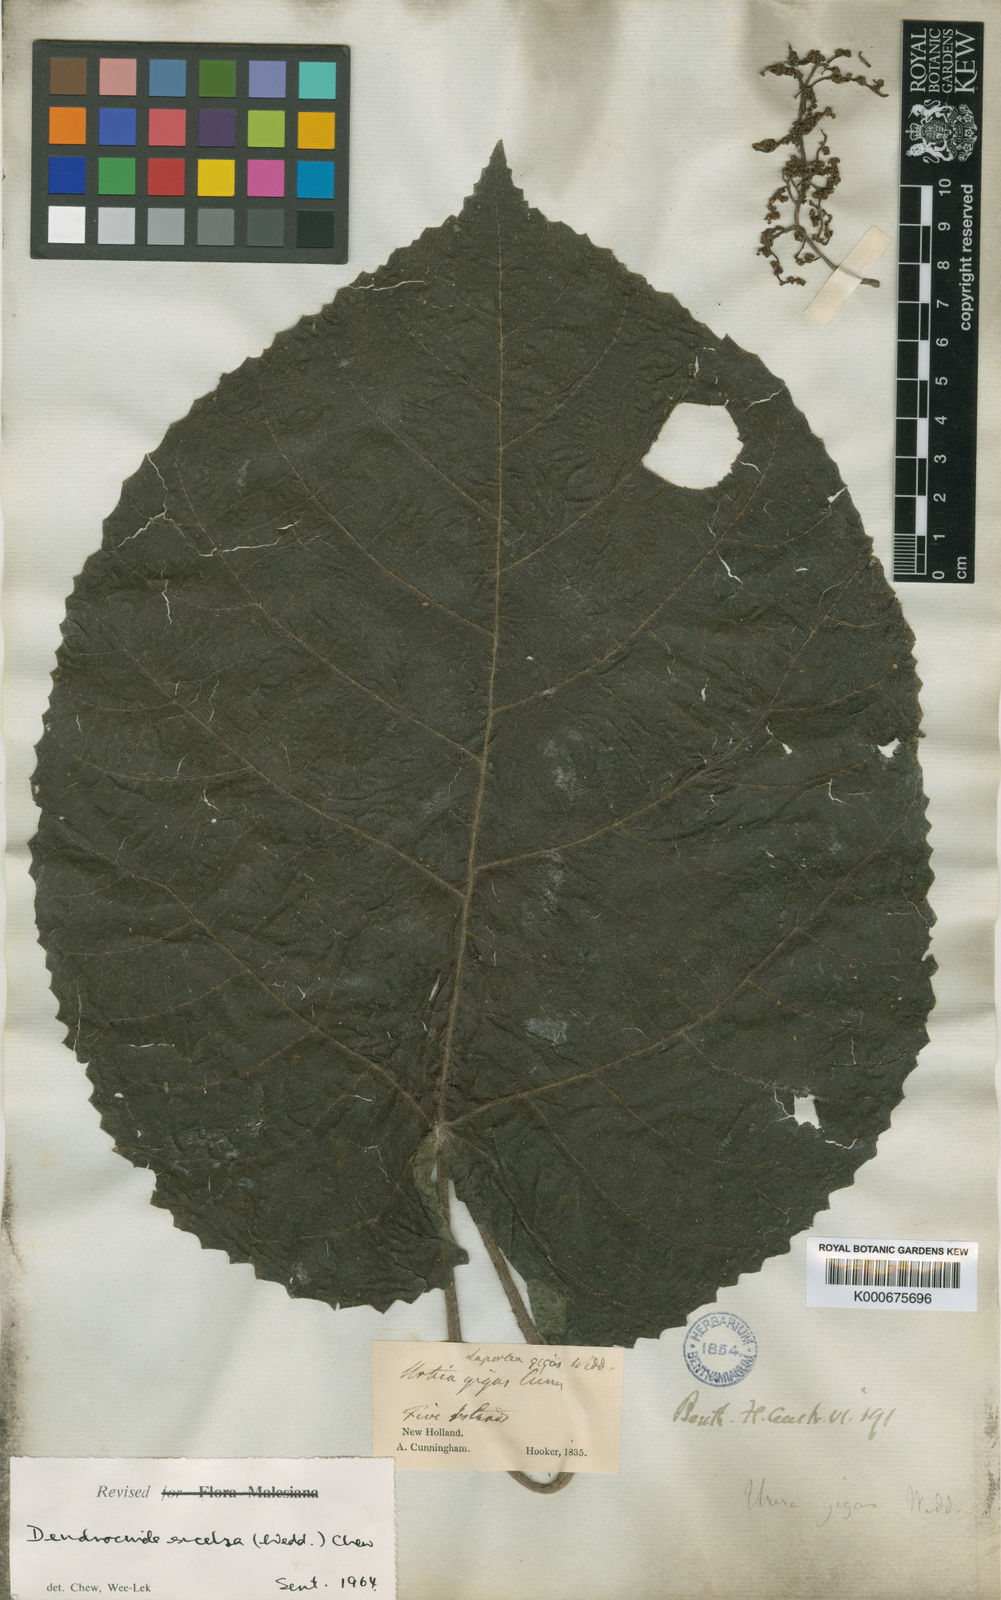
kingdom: Plantae
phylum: Tracheophyta
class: Magnoliopsida
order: Rosales
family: Urticaceae
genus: Dendrocnide
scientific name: Dendrocnide excelsa
